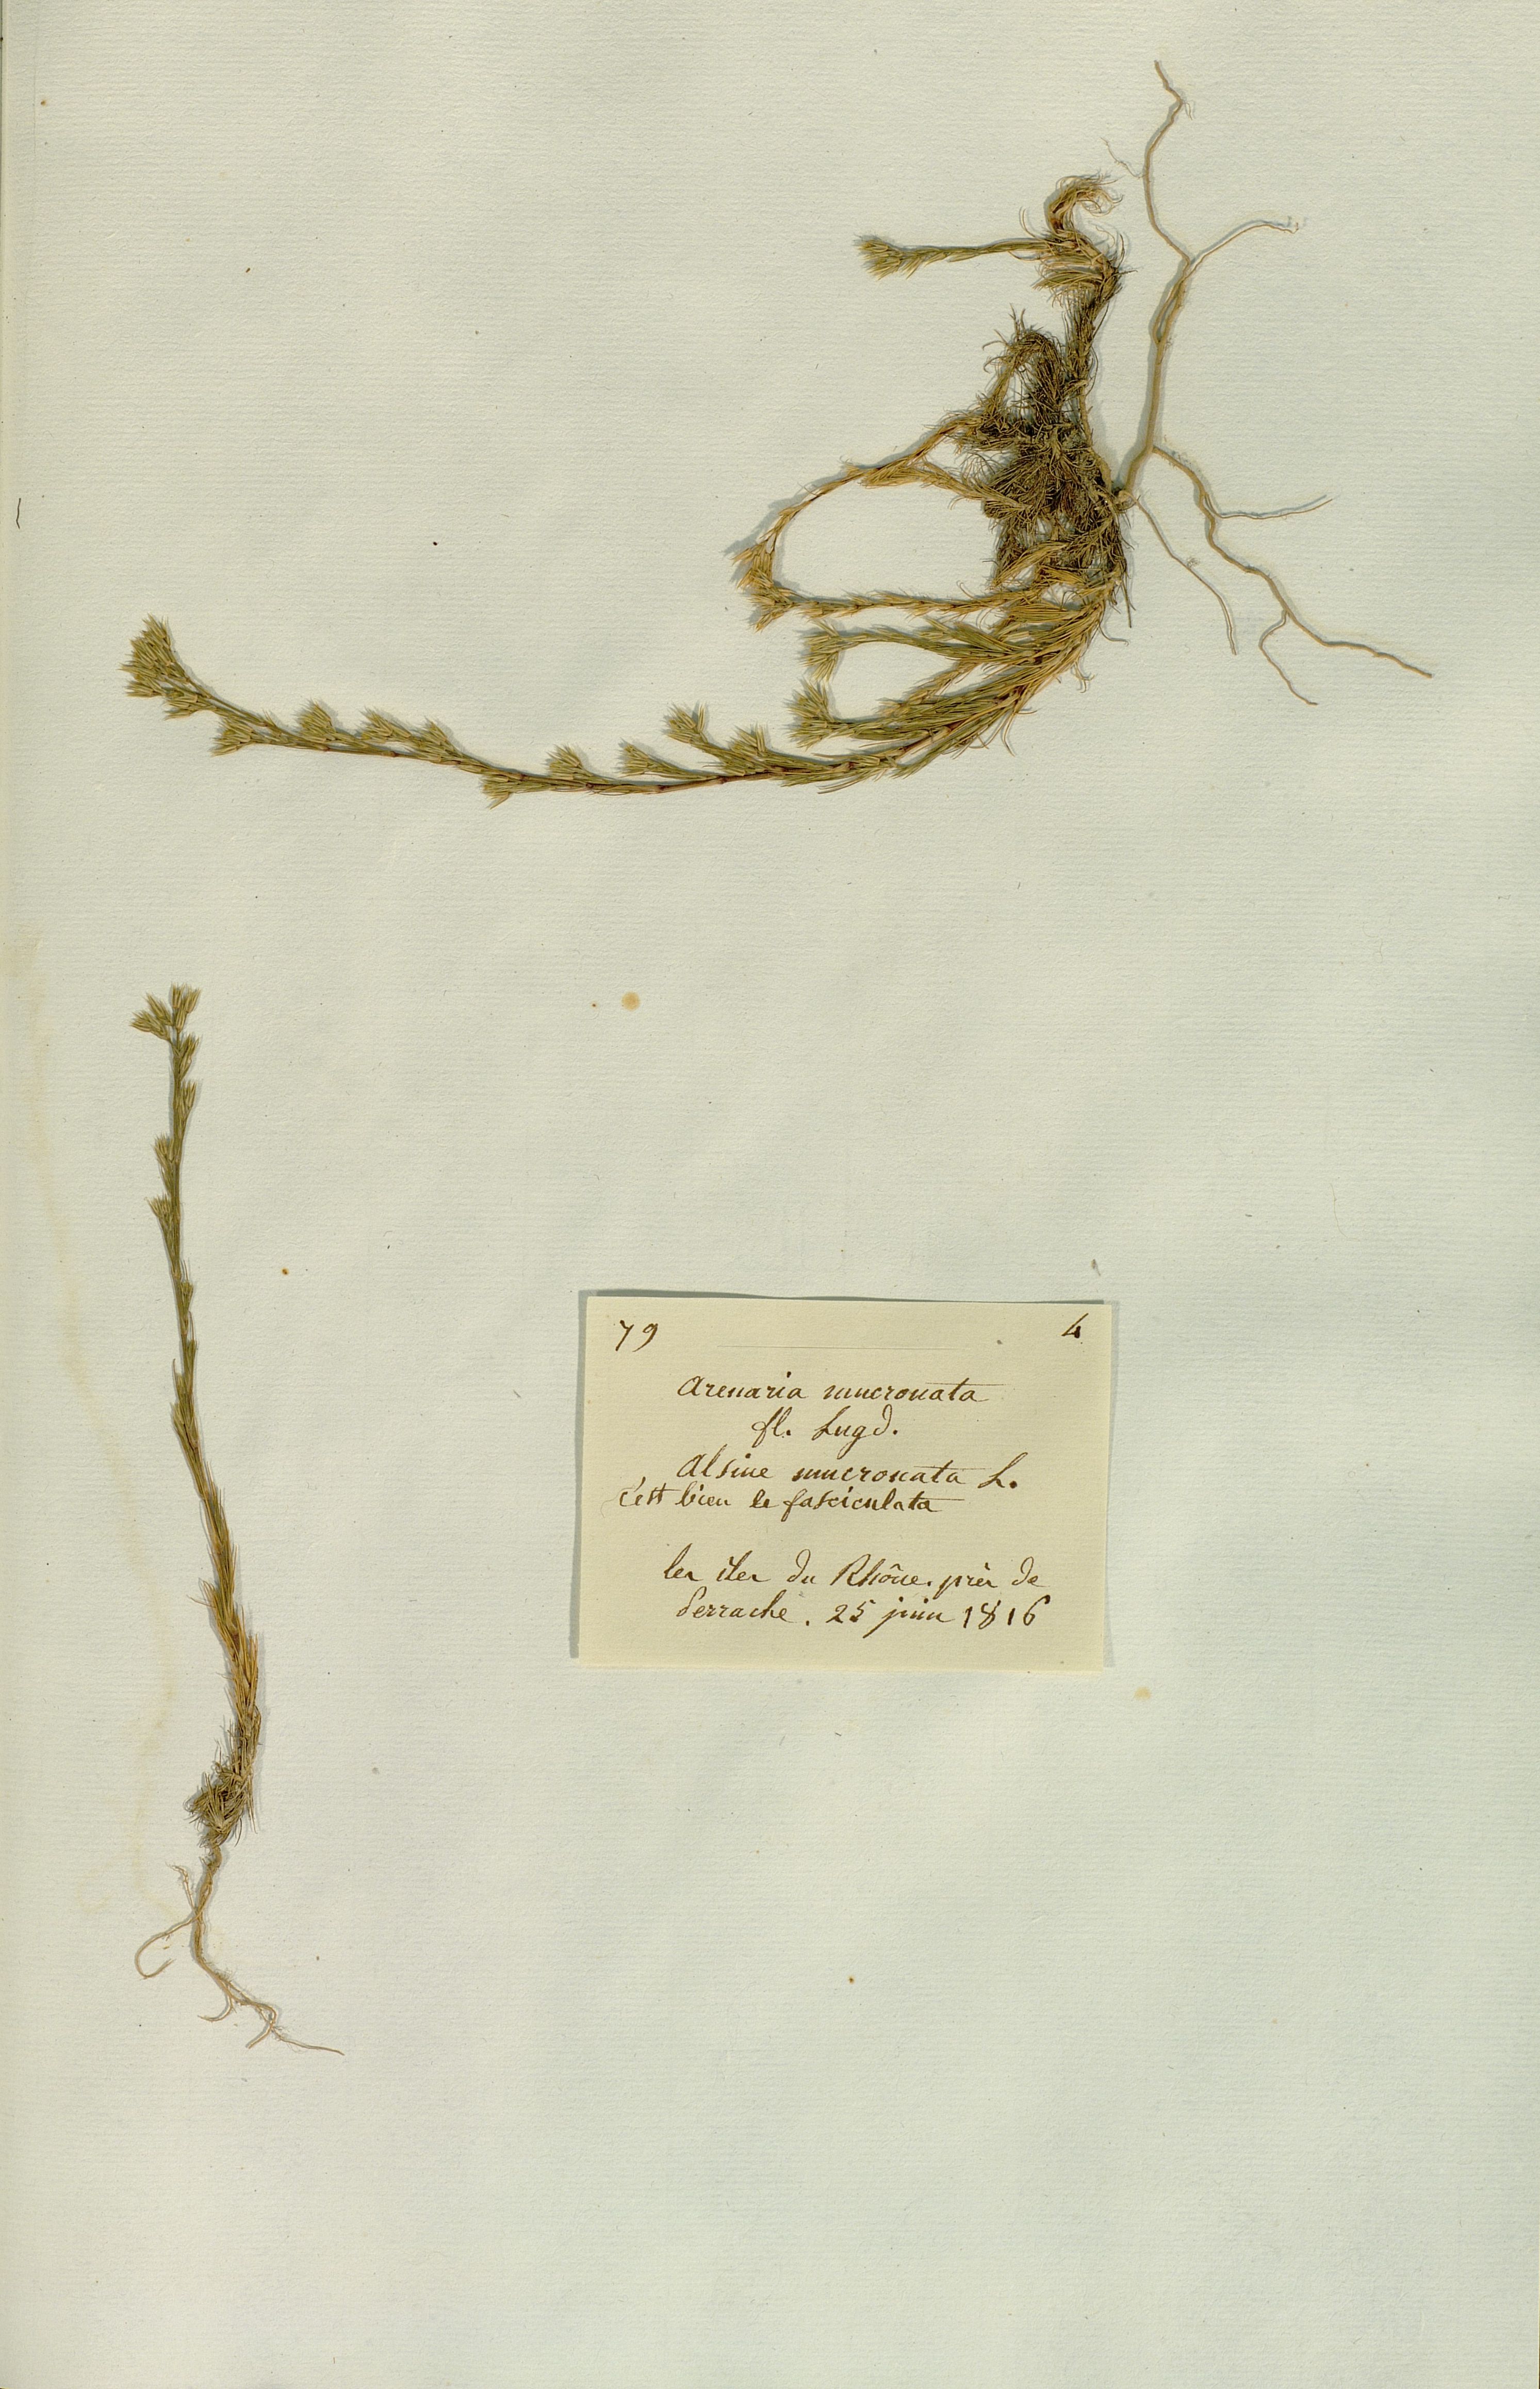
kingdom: Plantae
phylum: Tracheophyta
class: Magnoliopsida
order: Caryophyllales
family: Caryophyllaceae
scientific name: Caryophyllaceae
